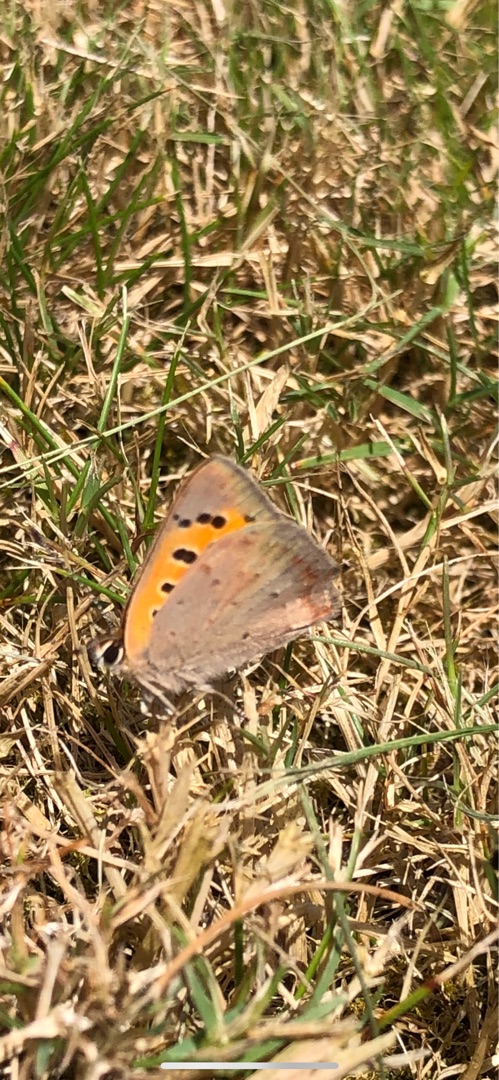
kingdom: Animalia
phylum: Arthropoda
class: Insecta
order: Lepidoptera
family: Lycaenidae
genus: Lycaena
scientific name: Lycaena phlaeas
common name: Lille ildfugl
